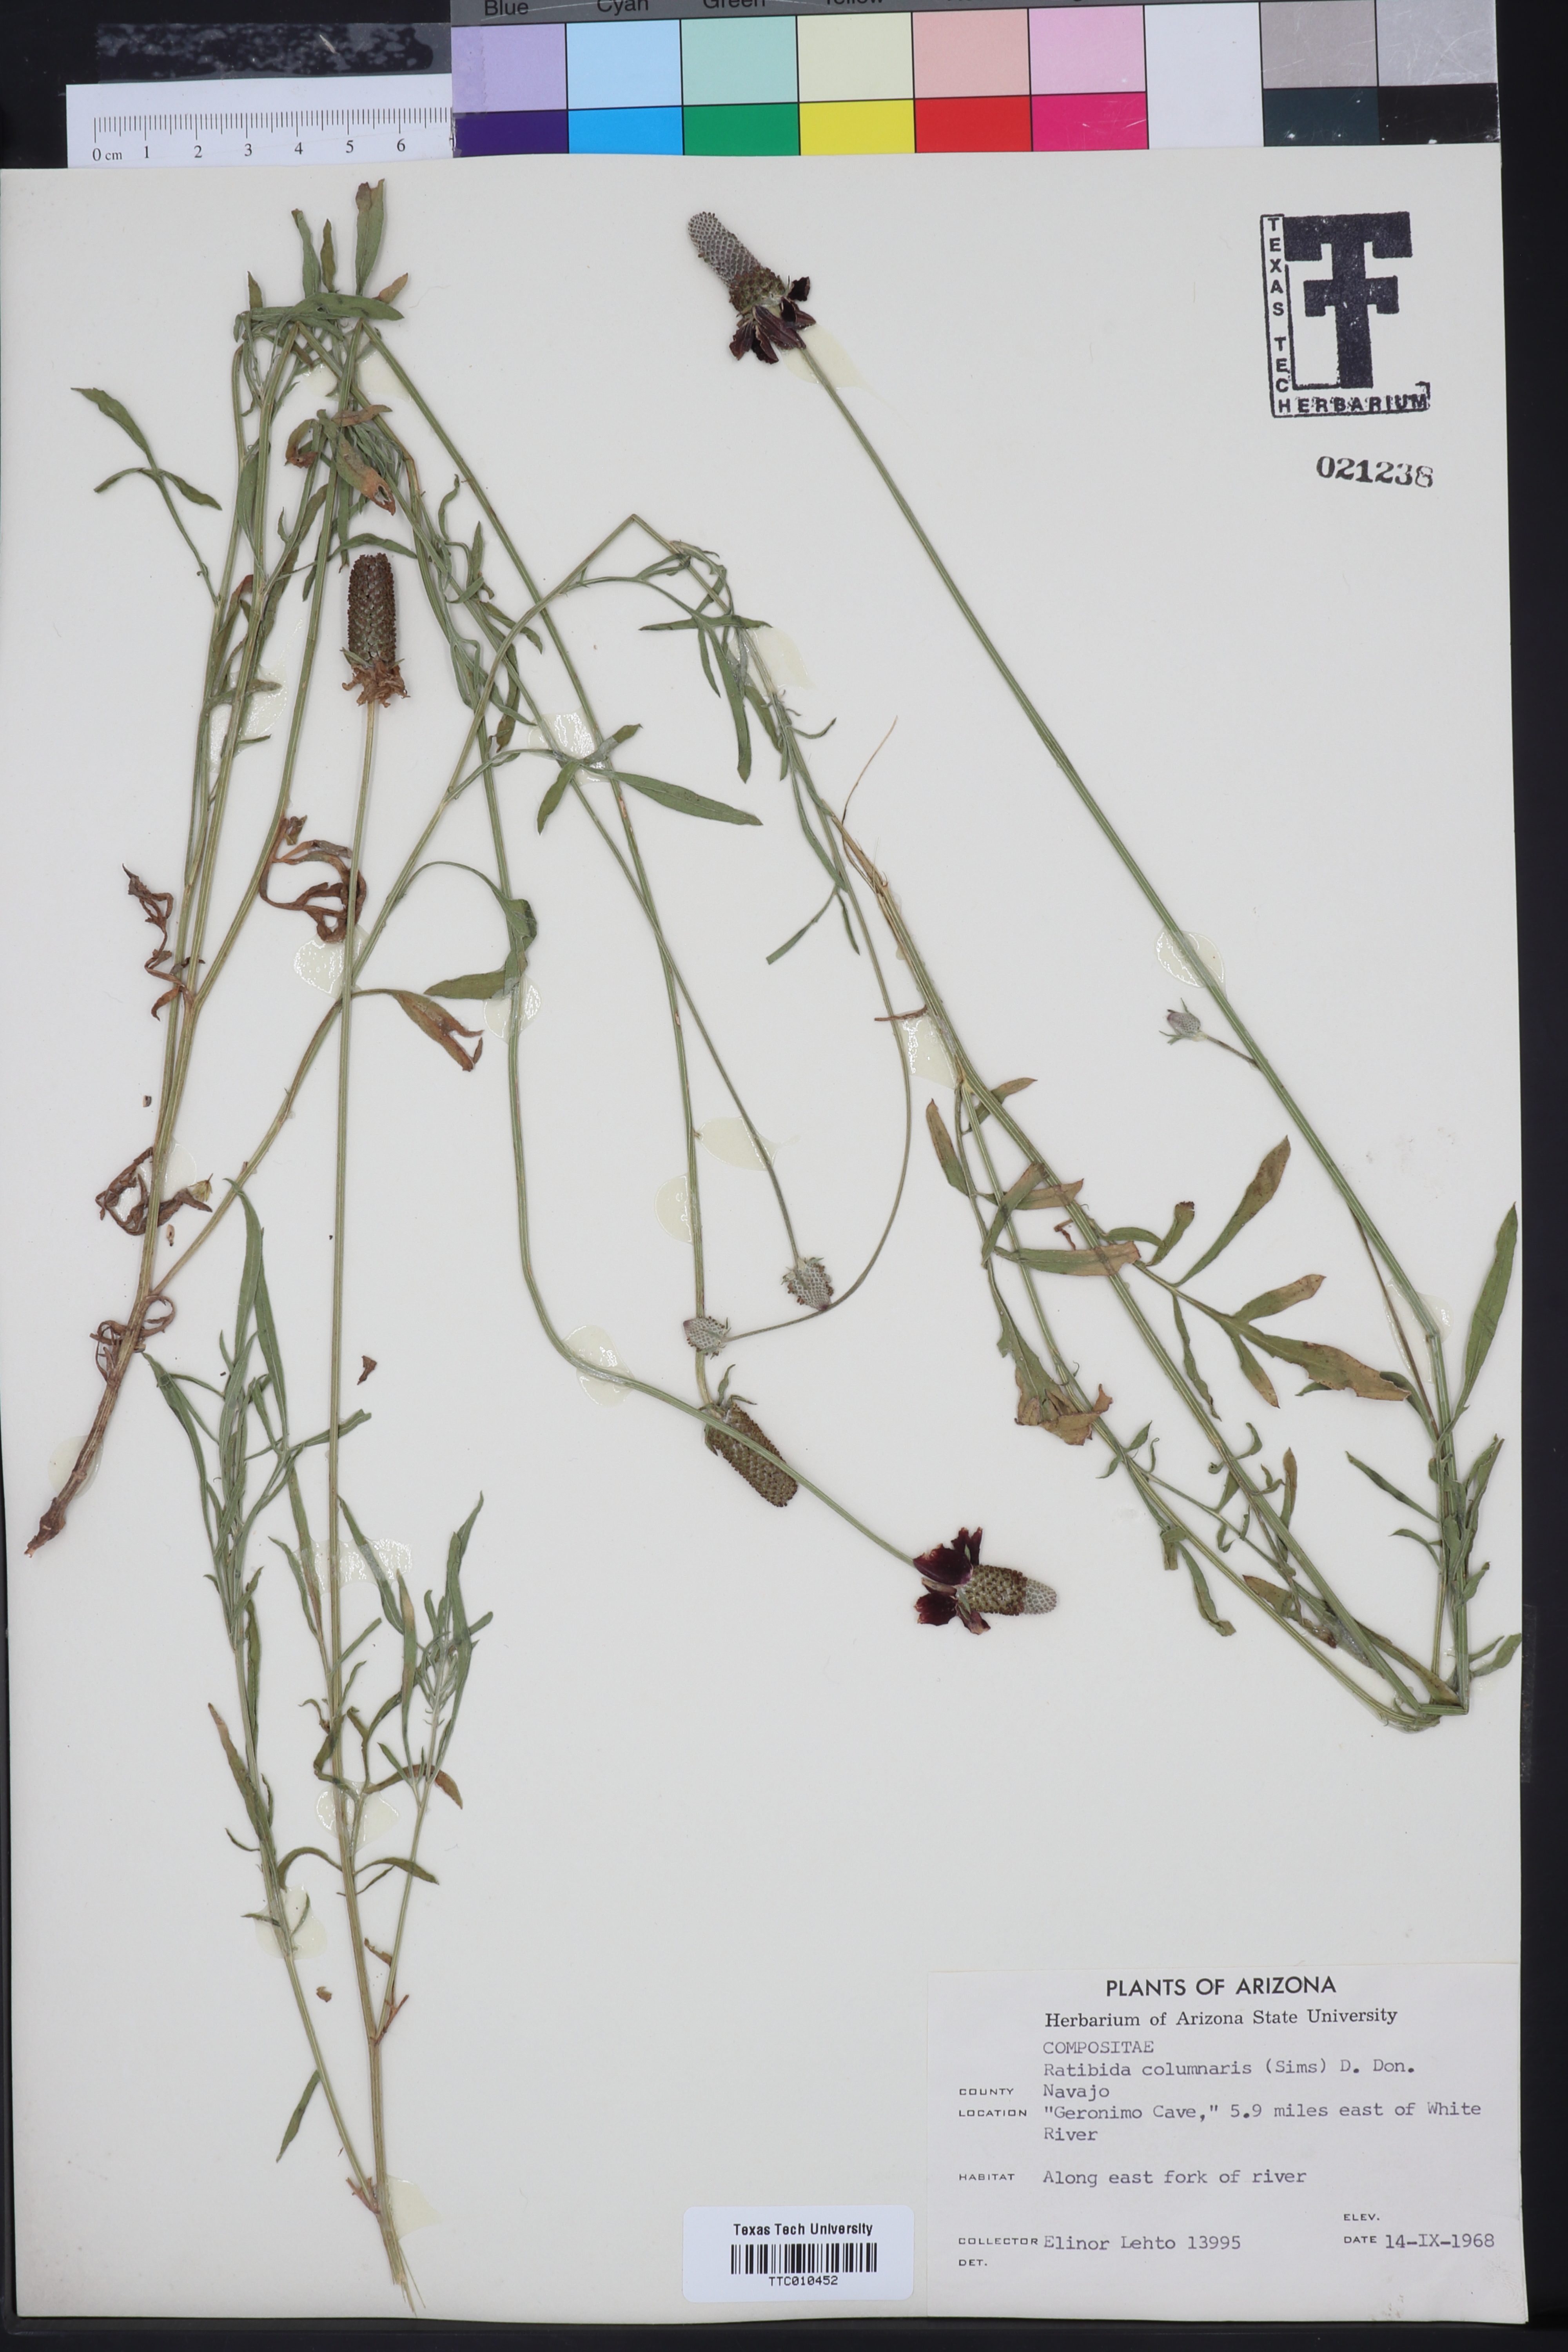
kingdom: Plantae
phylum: Tracheophyta
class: Magnoliopsida
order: Asterales
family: Asteraceae
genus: Ratibida
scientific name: Ratibida columnifera
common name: Prairie coneflower
